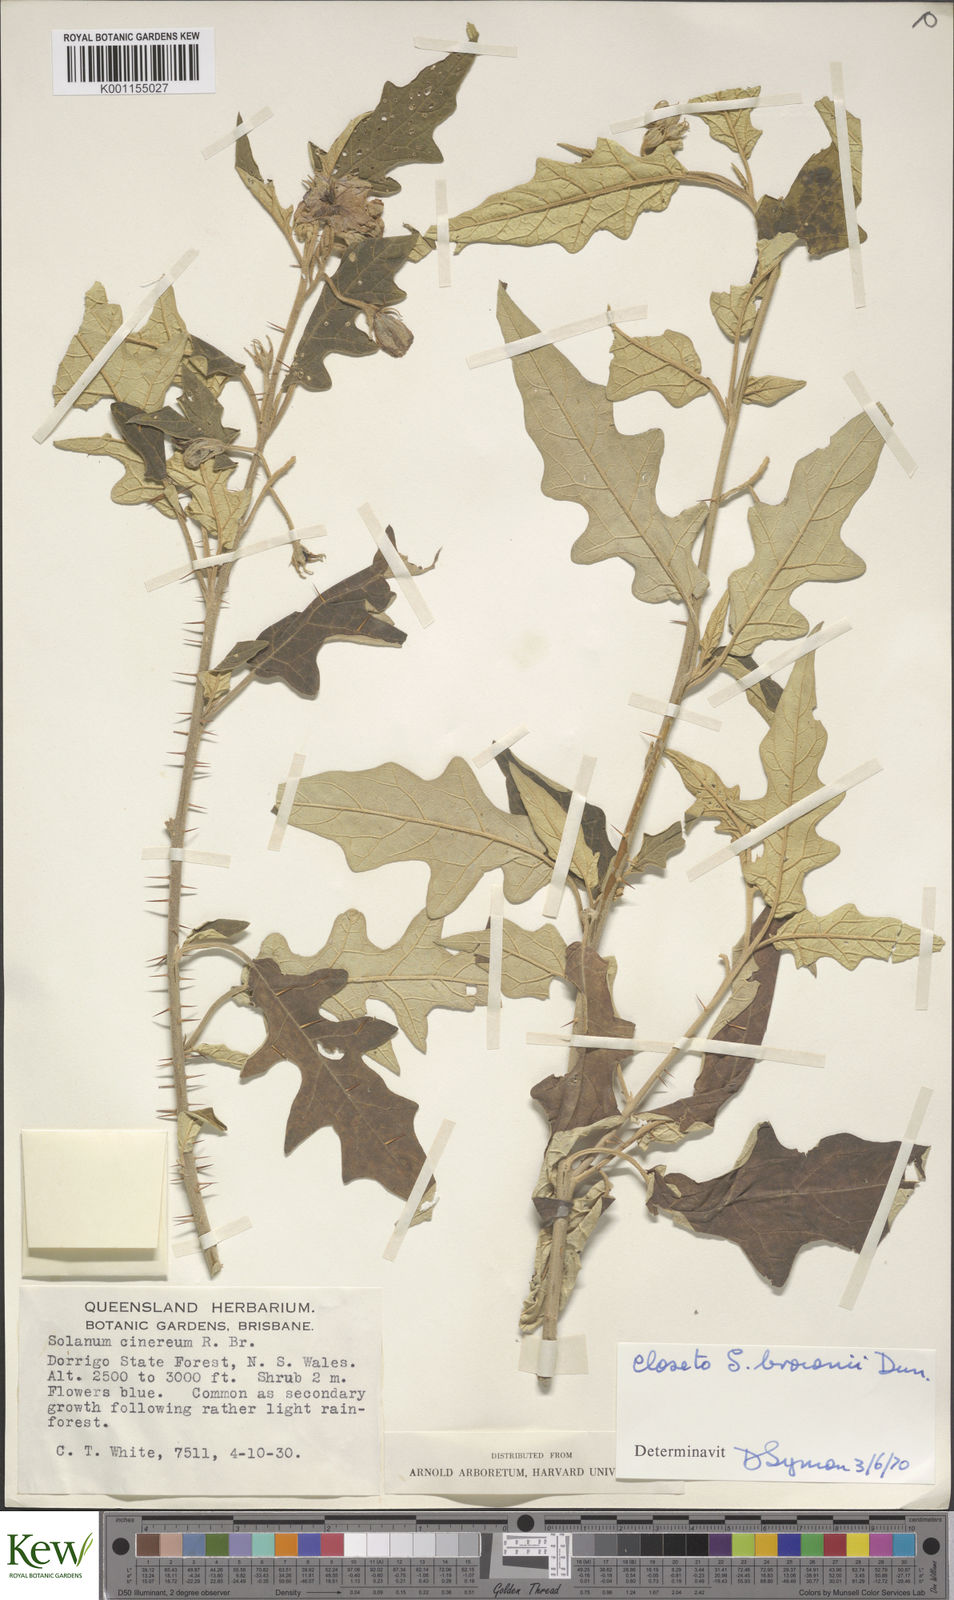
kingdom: Plantae
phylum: Tracheophyta
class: Magnoliopsida
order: Solanales
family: Solanaceae
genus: Solanum
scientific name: Solanum cinereum
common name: Narrawa-bur
